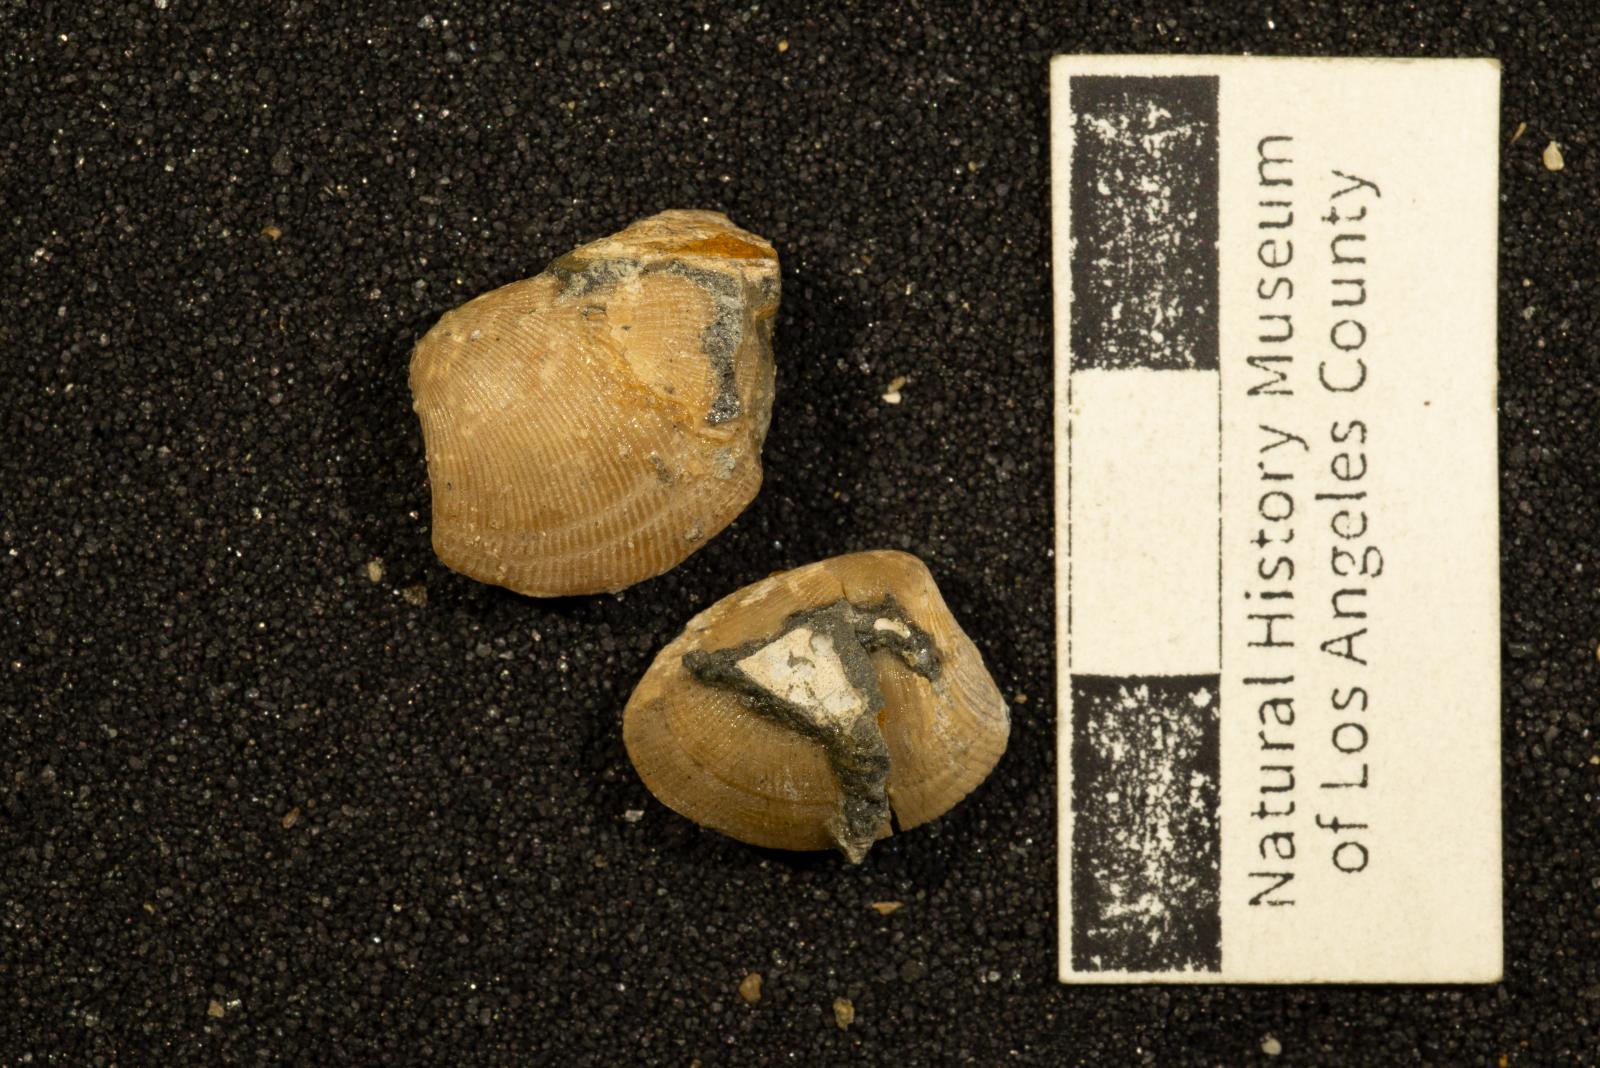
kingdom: Animalia
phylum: Mollusca
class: Bivalvia
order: Nuculida
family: Nuculidae
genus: Acila
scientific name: Acila demessa
